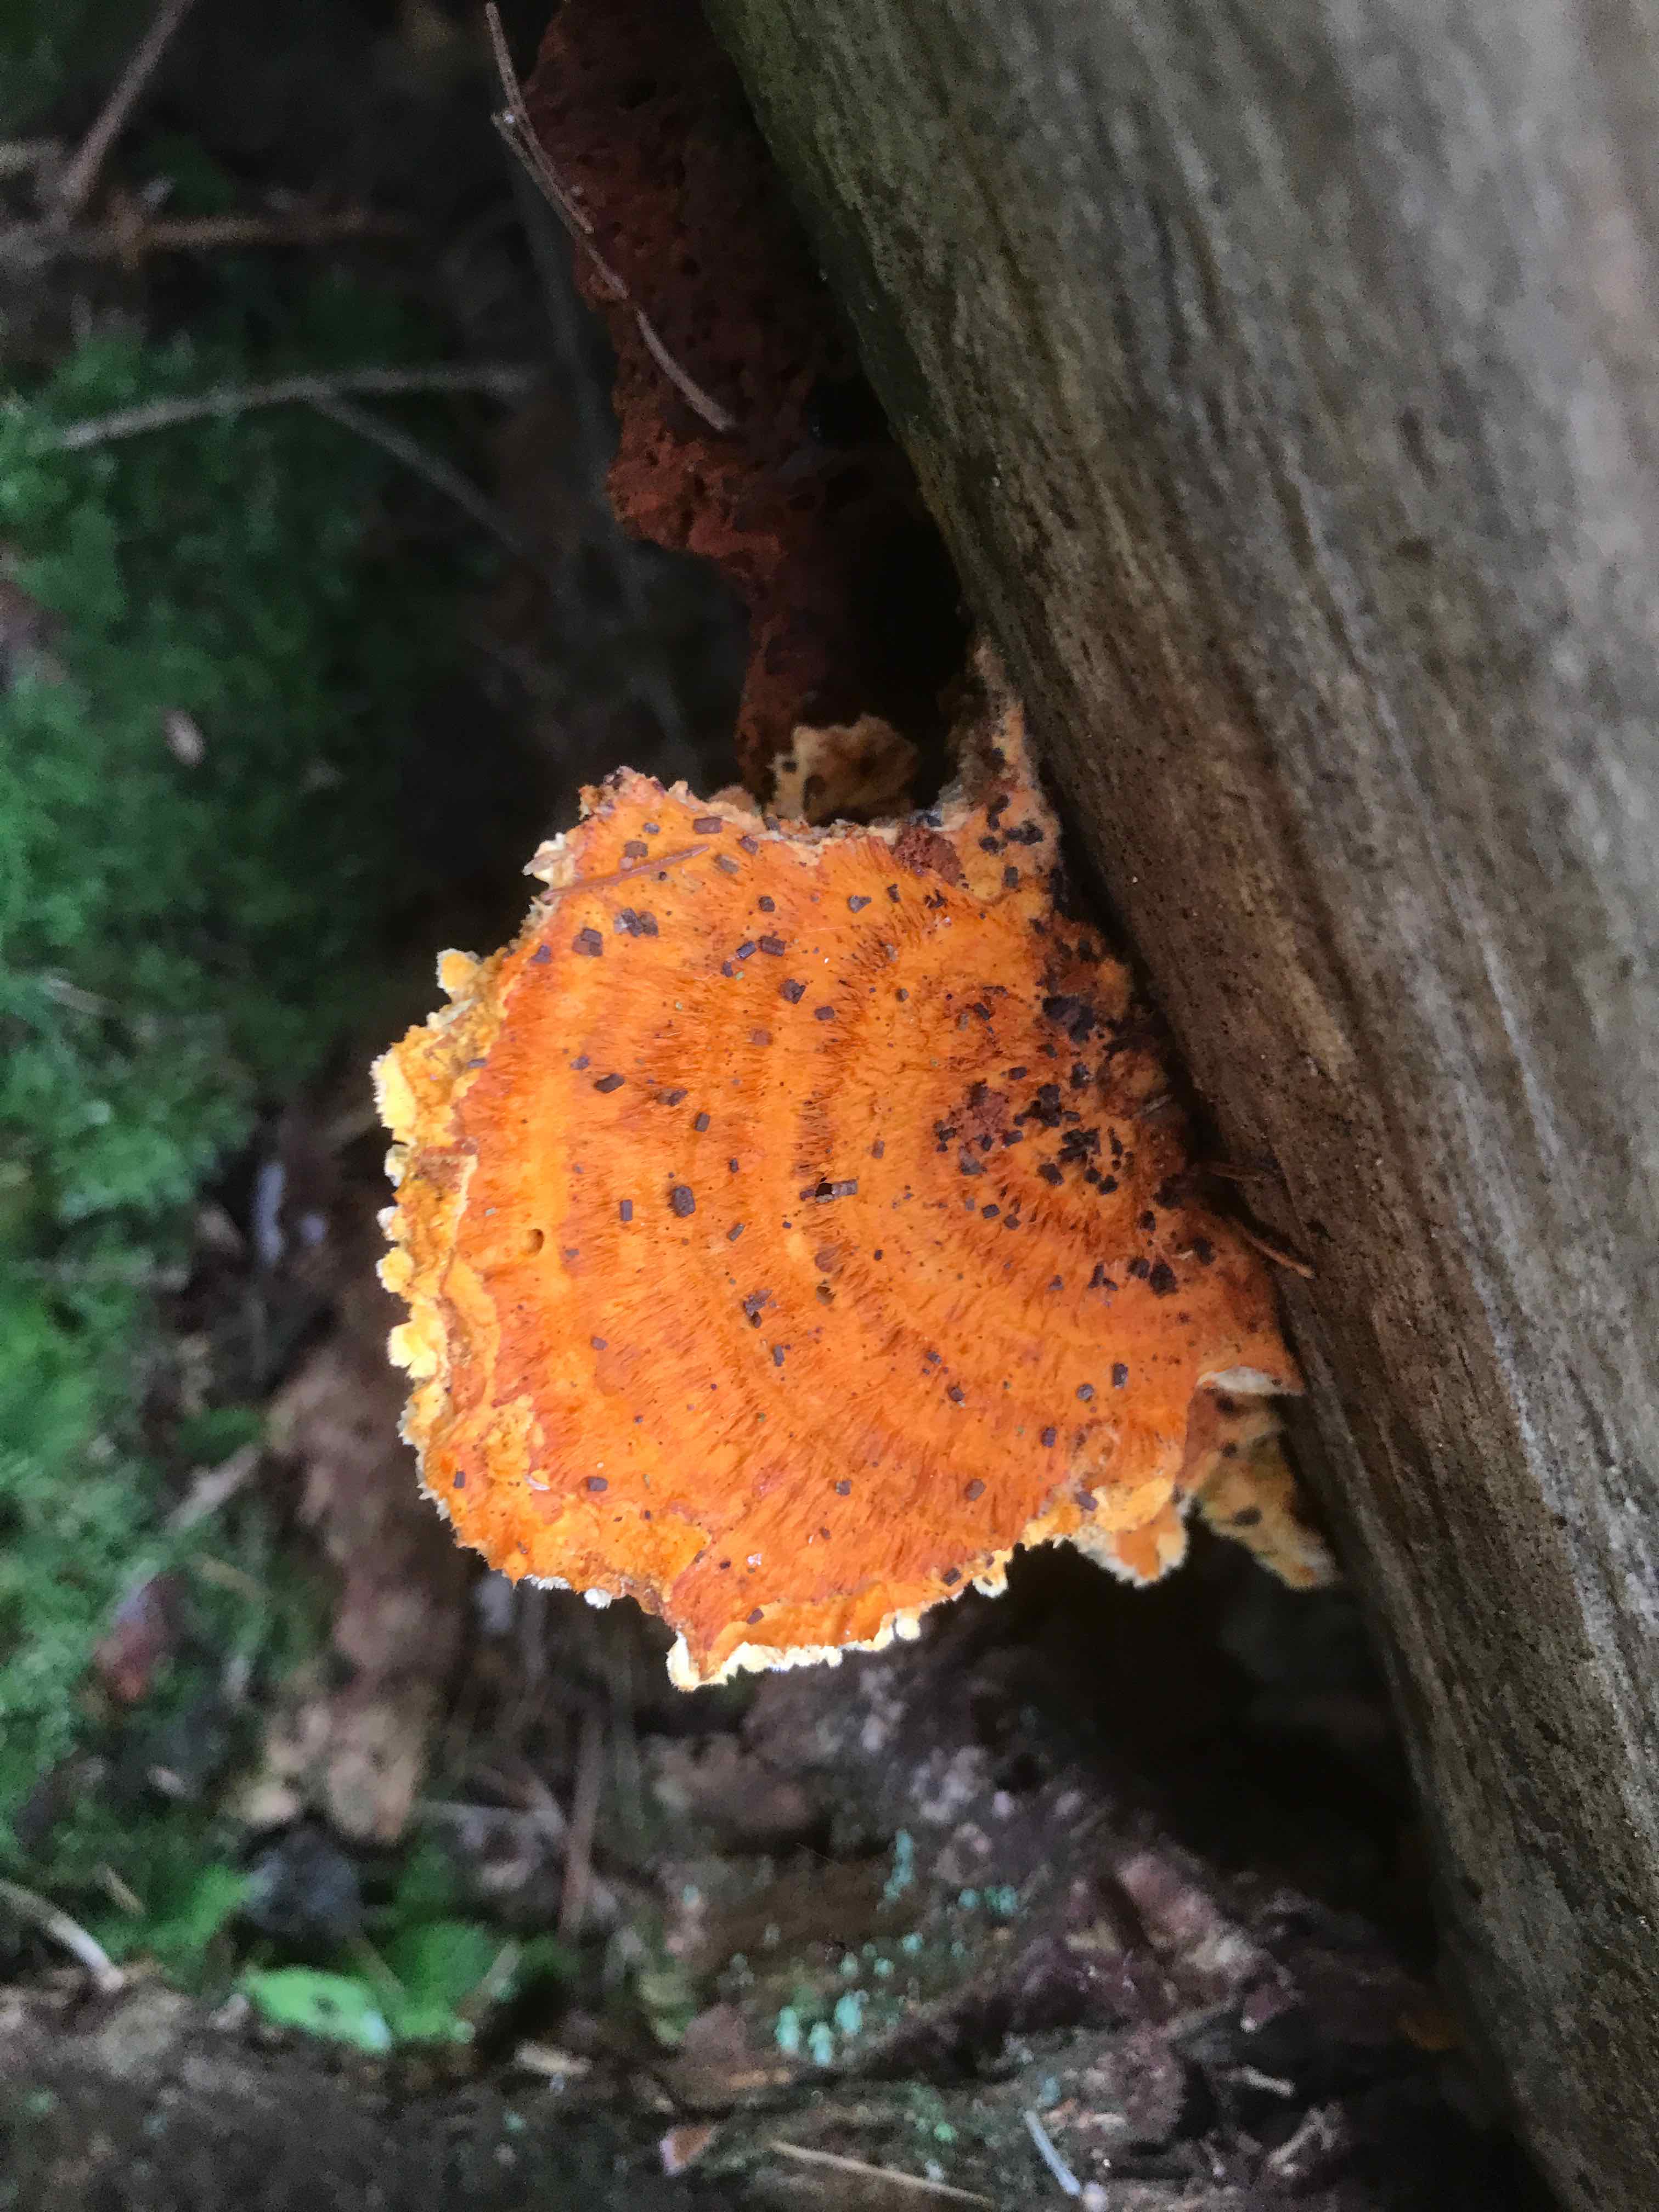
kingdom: Fungi
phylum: Basidiomycota
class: Agaricomycetes
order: Polyporales
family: Pycnoporellaceae
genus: Pycnoporellus
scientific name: Pycnoporellus fulgens
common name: flammeporesvamp
